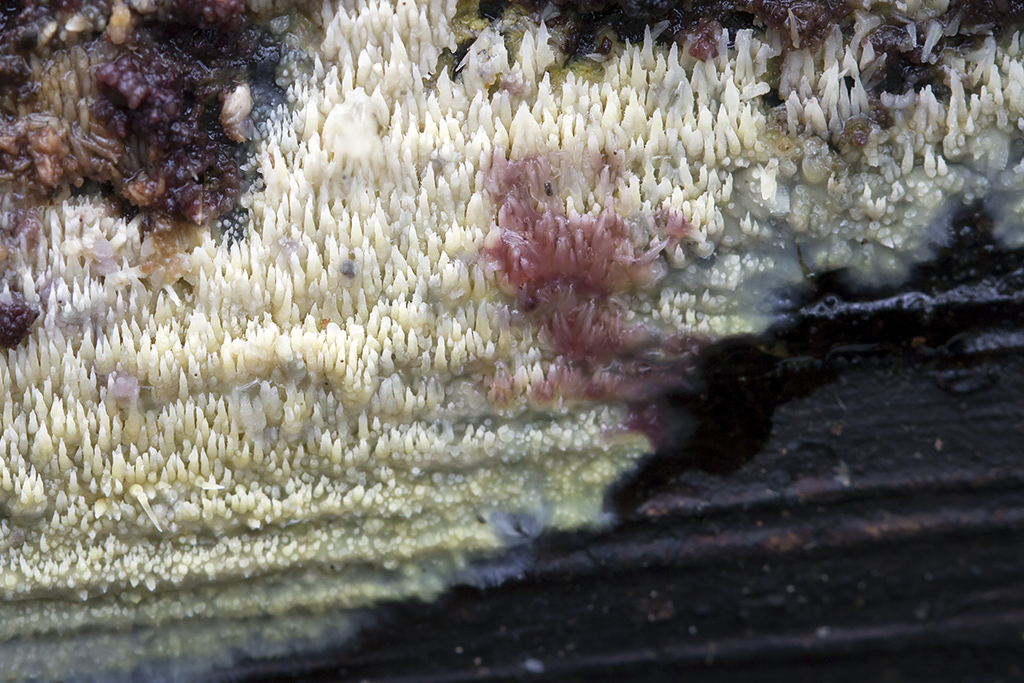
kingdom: Fungi
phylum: Basidiomycota
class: Agaricomycetes
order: Polyporales
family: Meruliaceae
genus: Mycoacia
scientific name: Mycoacia uda
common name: citrongul vokspig
